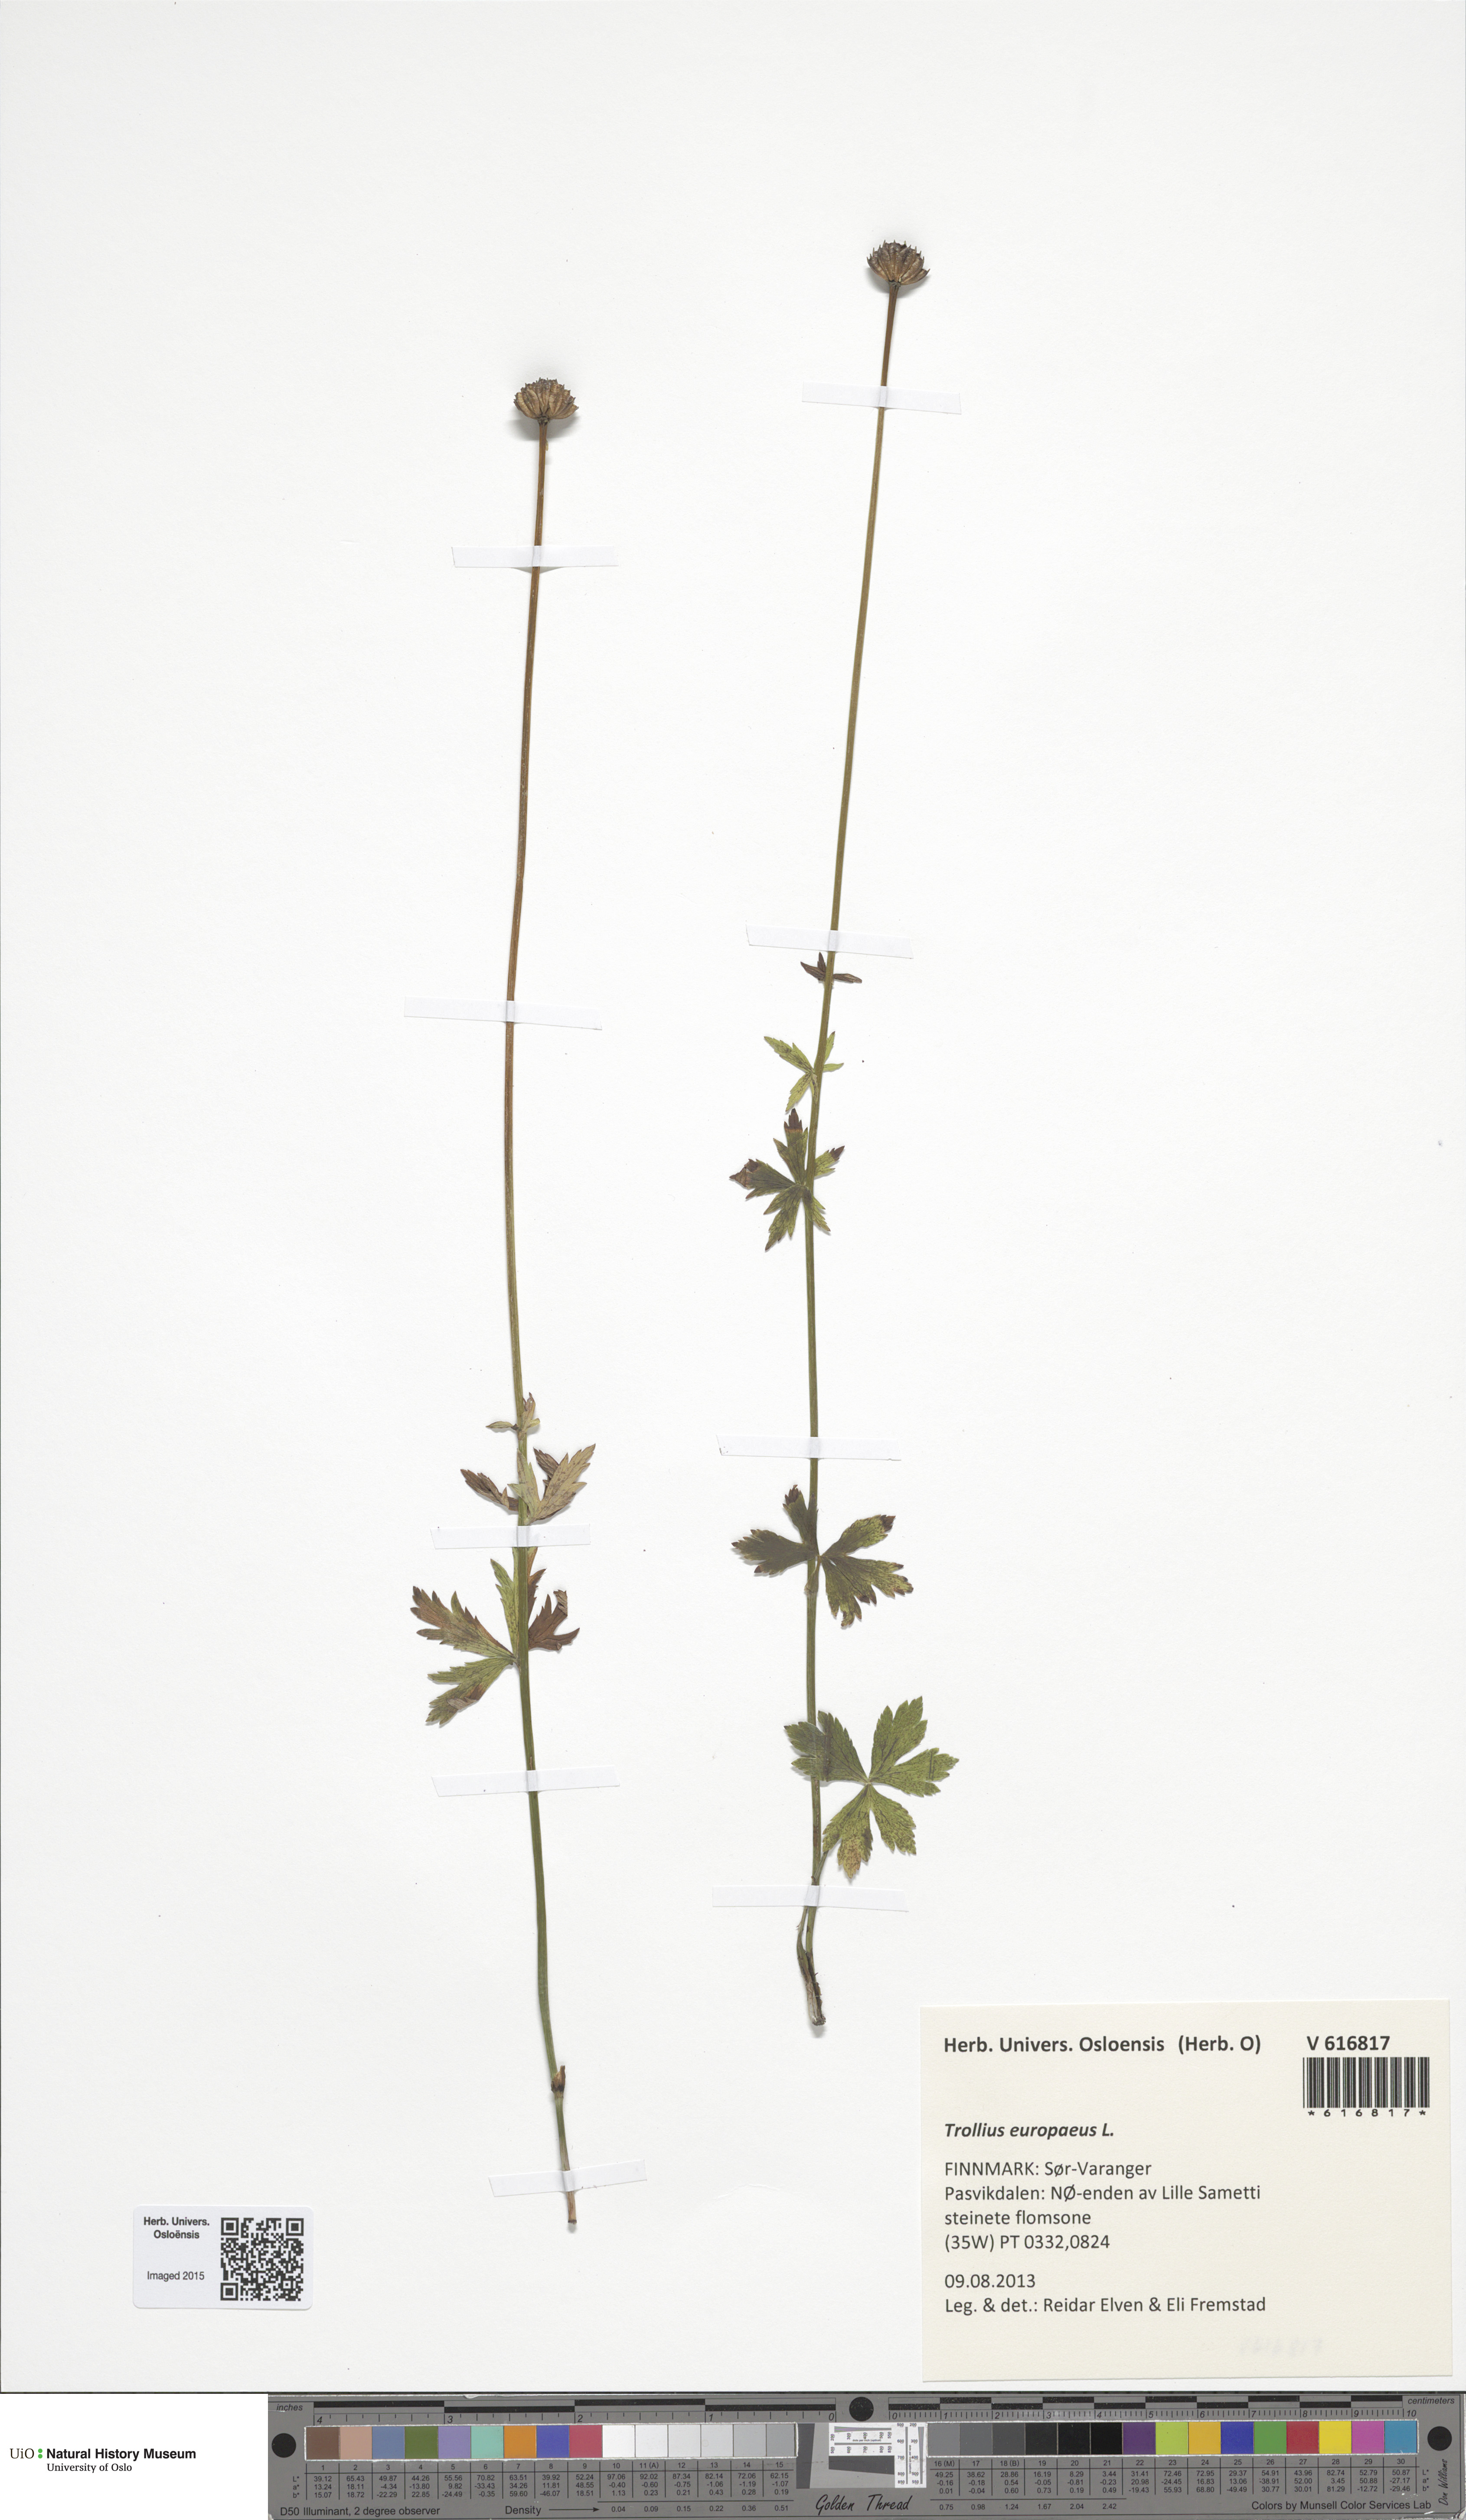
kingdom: Plantae
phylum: Tracheophyta
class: Magnoliopsida
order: Ranunculales
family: Ranunculaceae
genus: Trollius
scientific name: Trollius europaeus
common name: European globeflower
